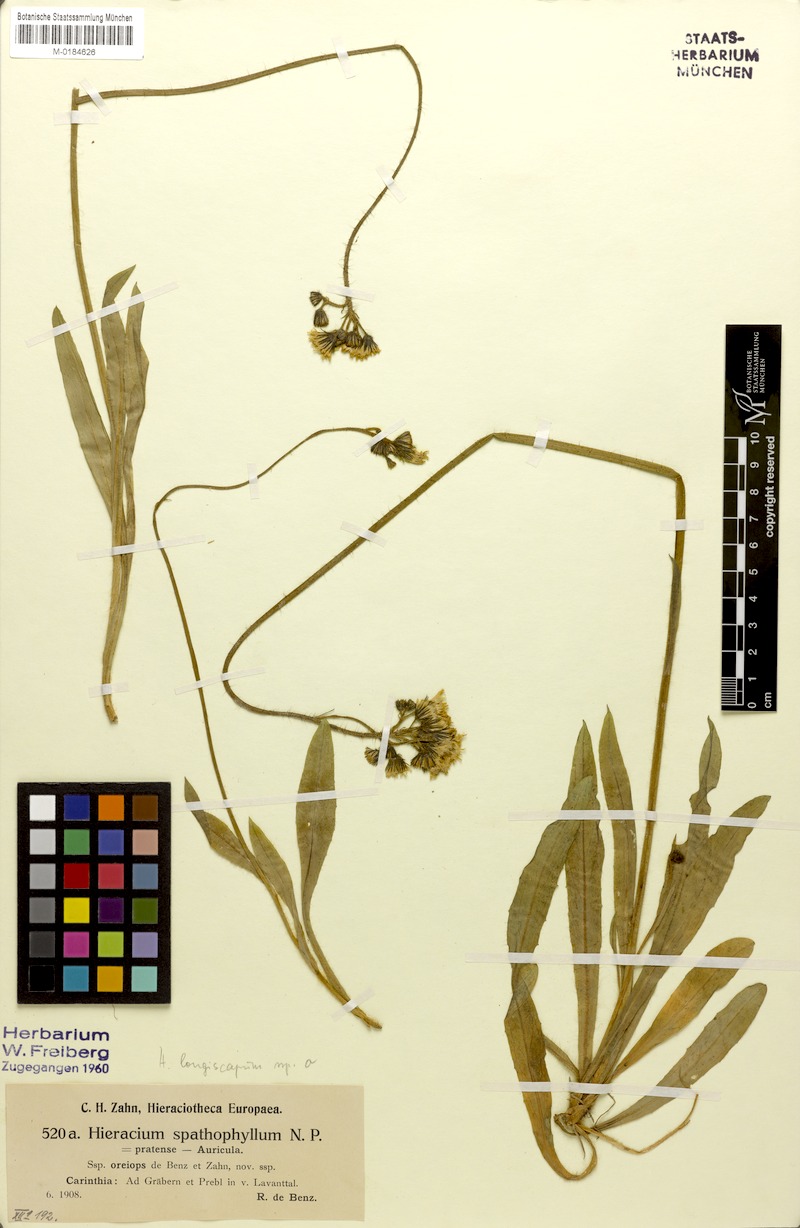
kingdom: Plantae
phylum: Tracheophyta
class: Magnoliopsida
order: Asterales
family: Asteraceae
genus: Pilosella
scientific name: Pilosella floribunda
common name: Glaucous hawkweed
